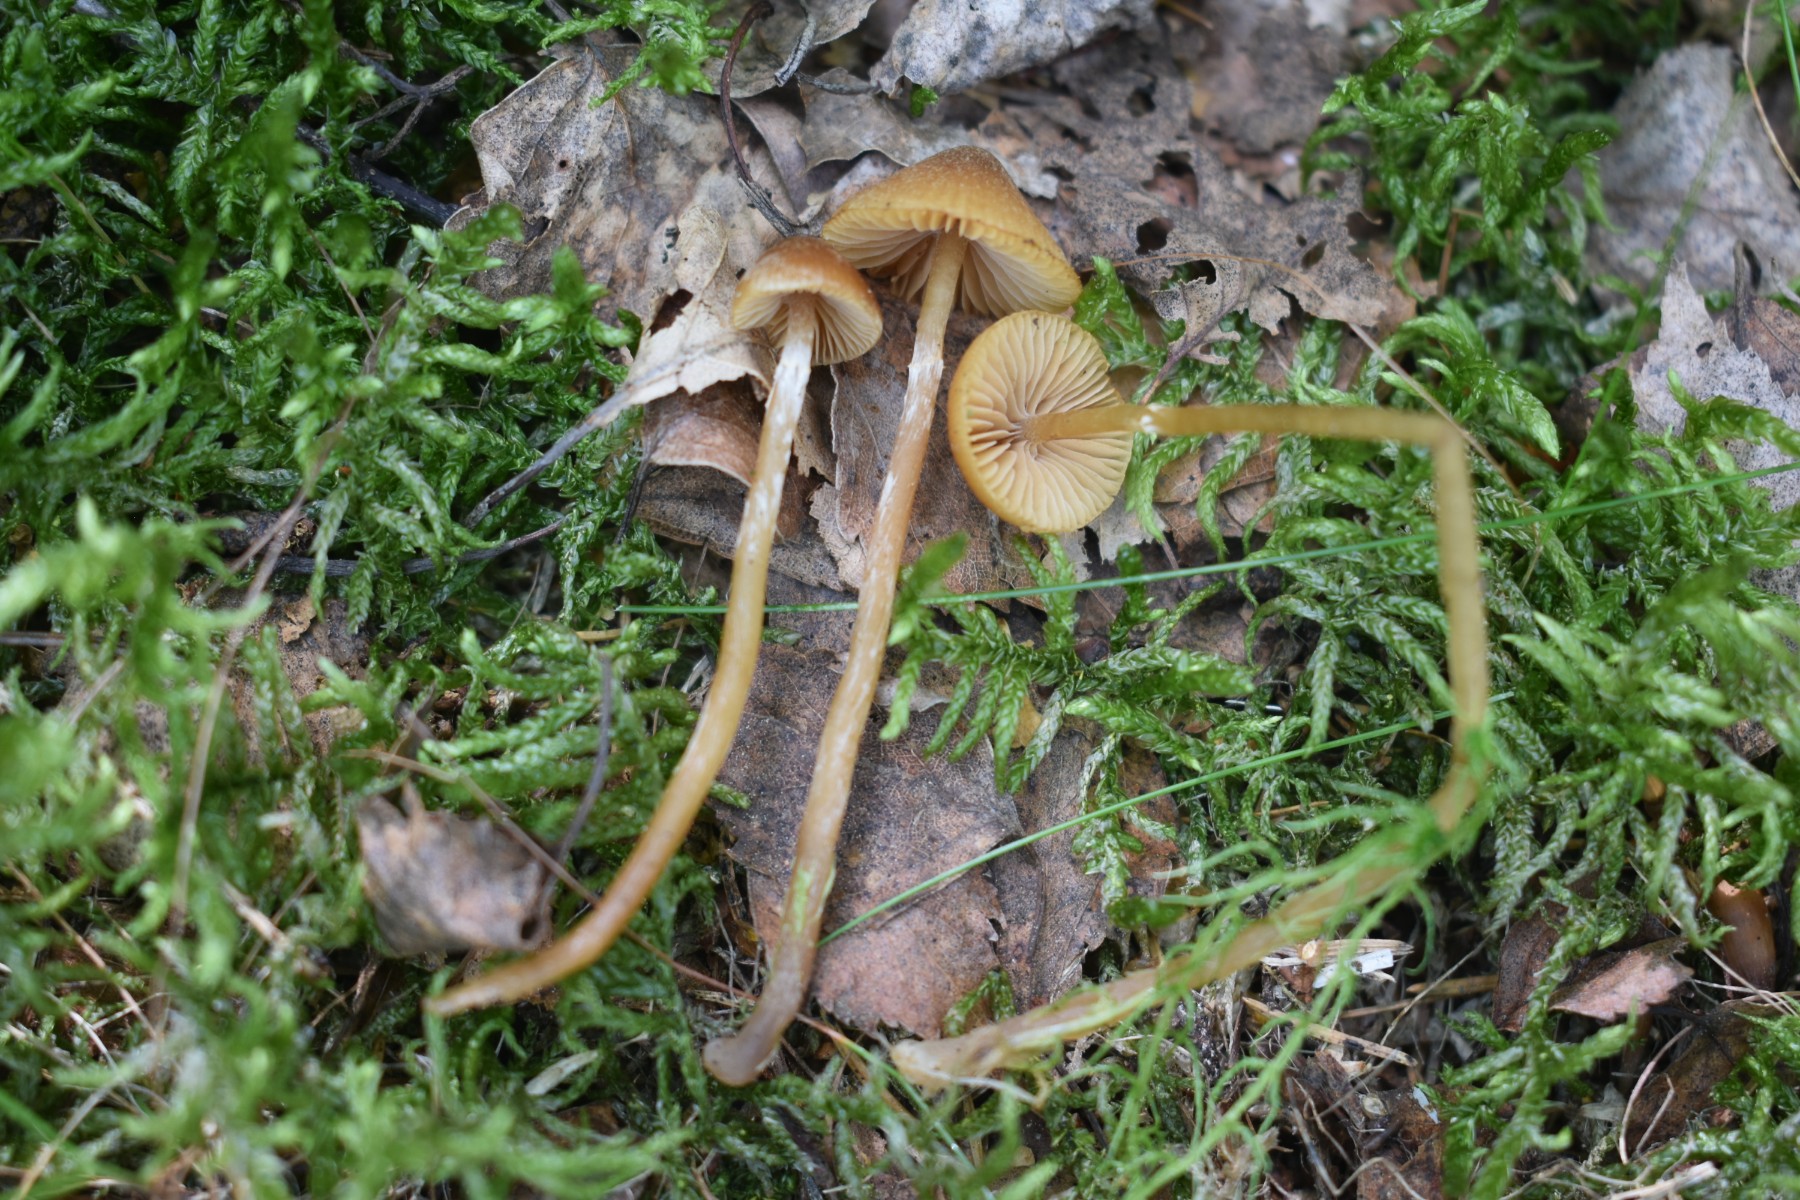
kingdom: Fungi
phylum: Basidiomycota
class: Agaricomycetes
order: Agaricales
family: Hymenogastraceae
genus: Galerina
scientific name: Galerina paludosa
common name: mose-hjelmhat
